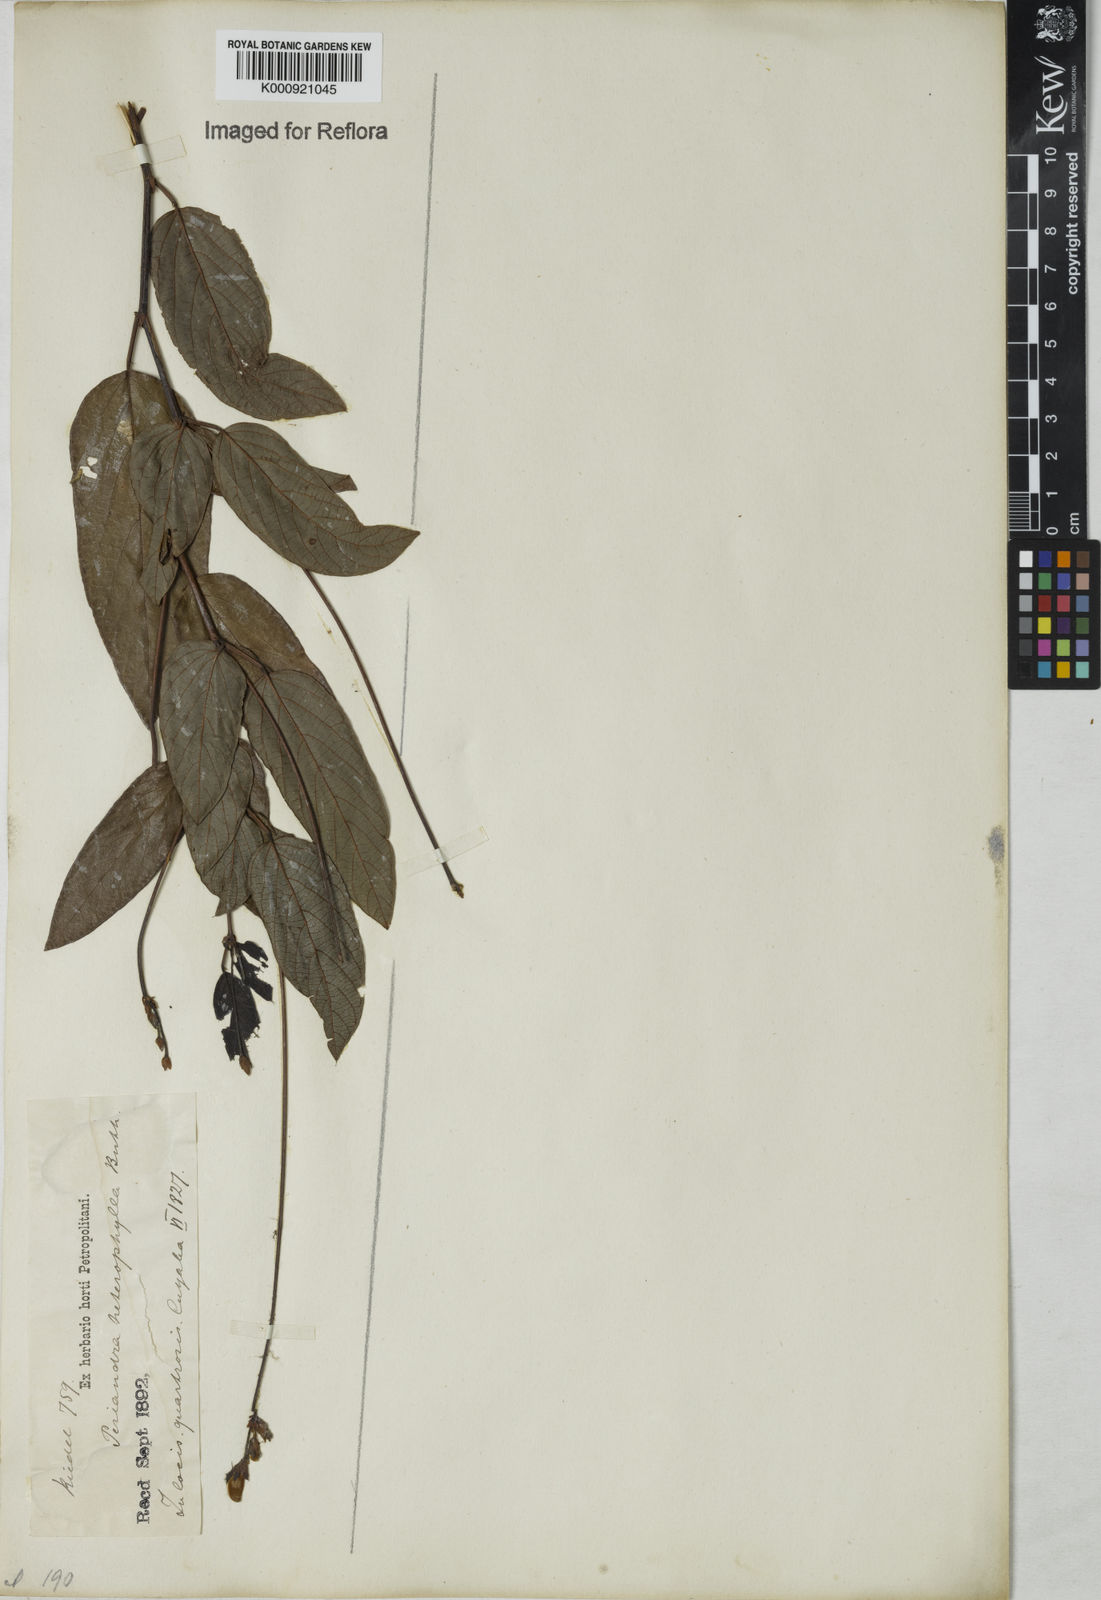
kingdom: Plantae
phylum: Tracheophyta
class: Magnoliopsida
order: Fabales
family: Fabaceae
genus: Periandra
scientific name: Periandra heterophylla
